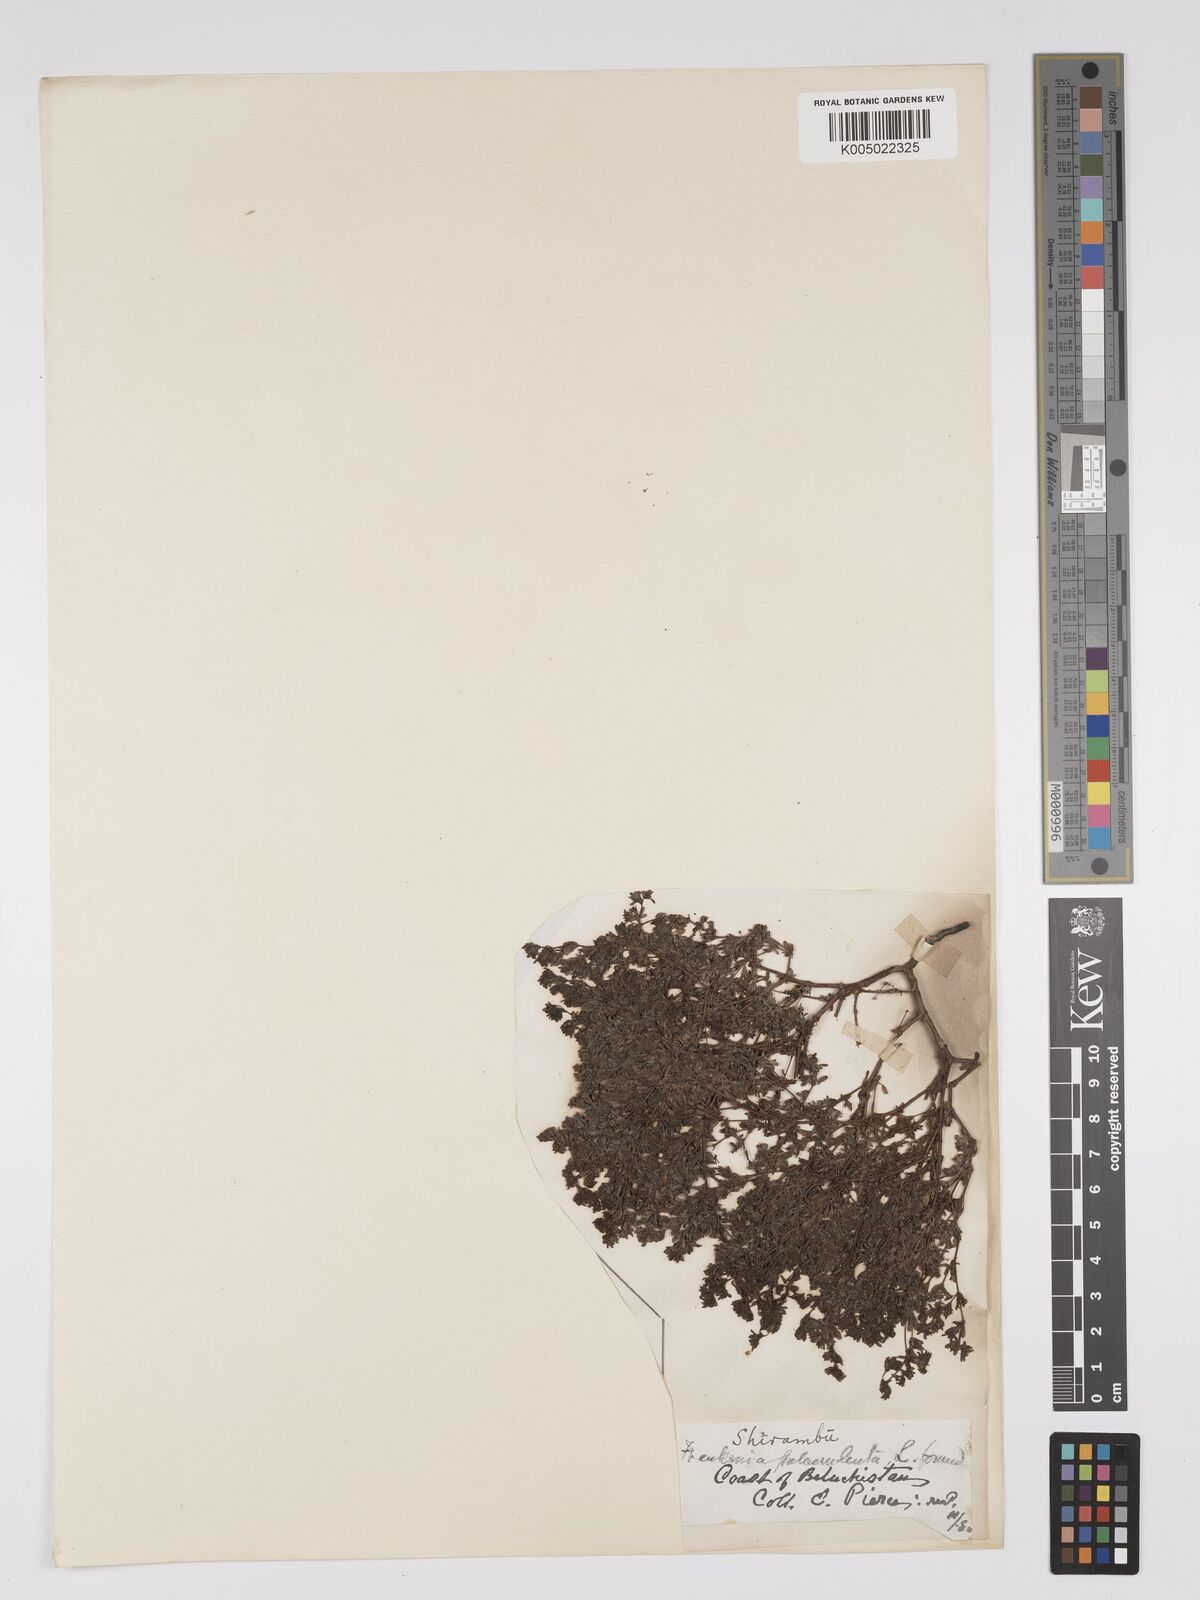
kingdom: Plantae
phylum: Tracheophyta
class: Magnoliopsida
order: Caryophyllales
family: Frankeniaceae
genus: Frankenia
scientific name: Frankenia pulverulenta
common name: European seaheath
